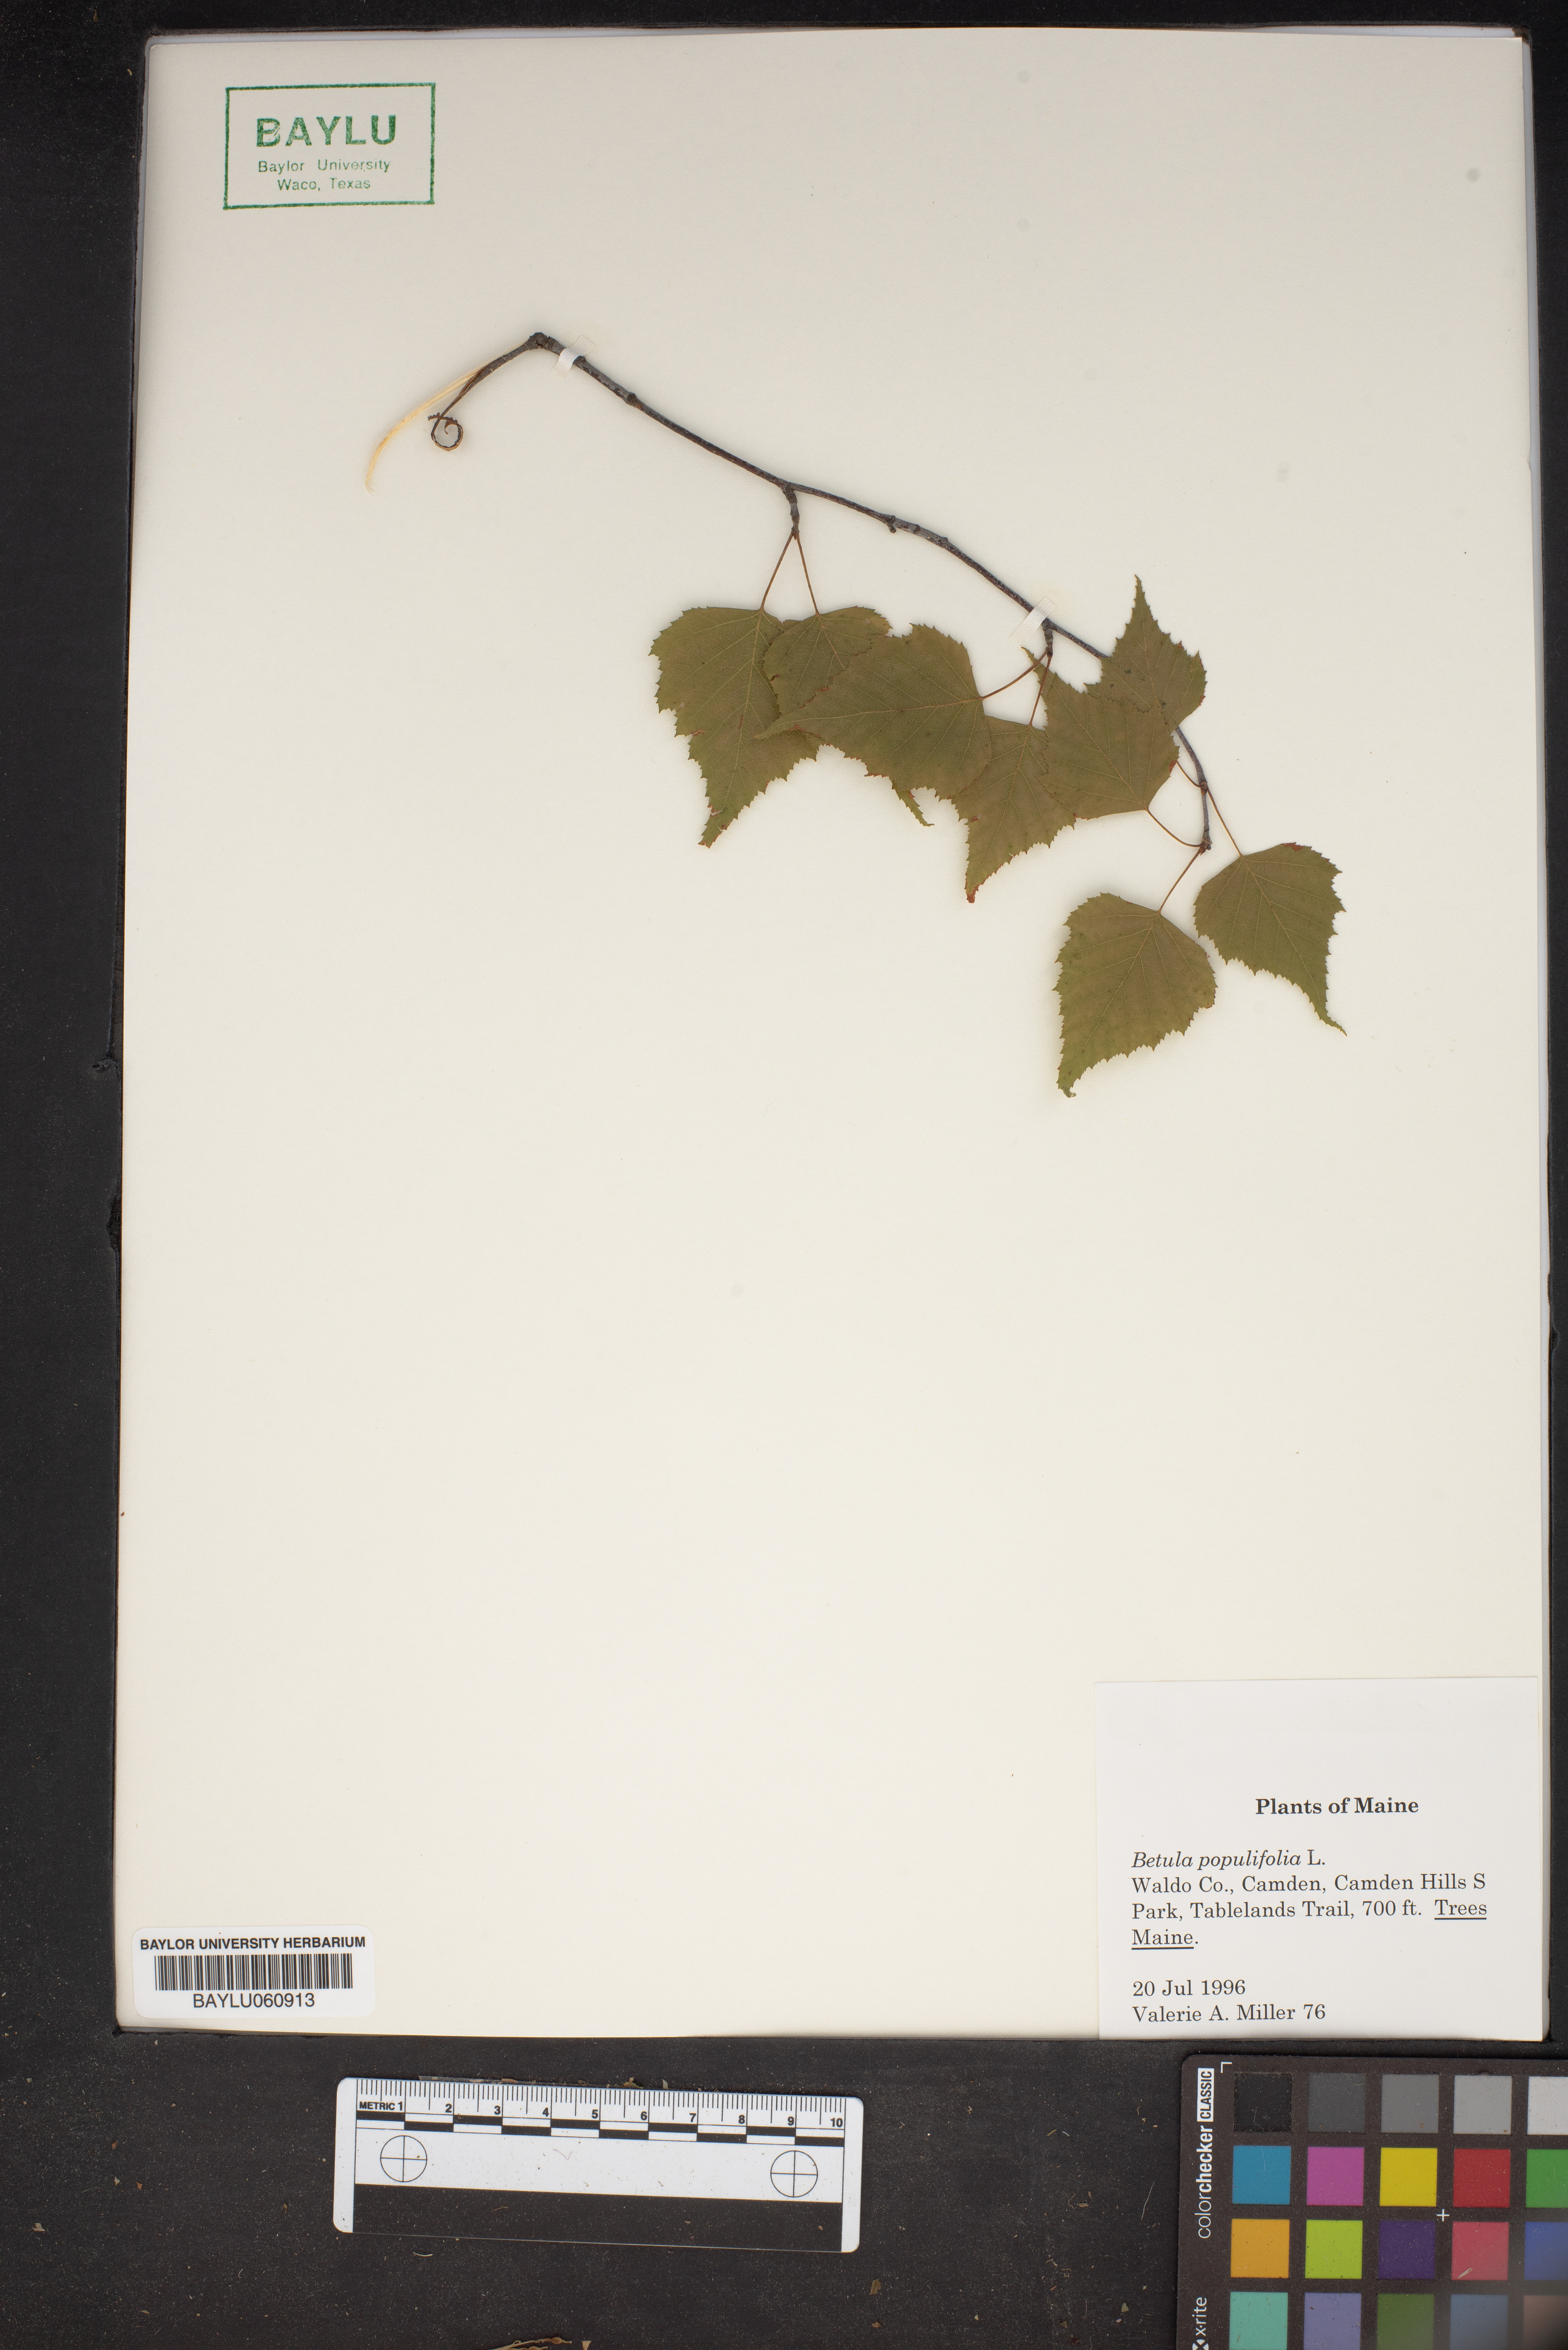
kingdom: Plantae
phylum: Tracheophyta
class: Magnoliopsida
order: Fagales
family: Betulaceae
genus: Betula
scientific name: Betula populifolia
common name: Fire birch
